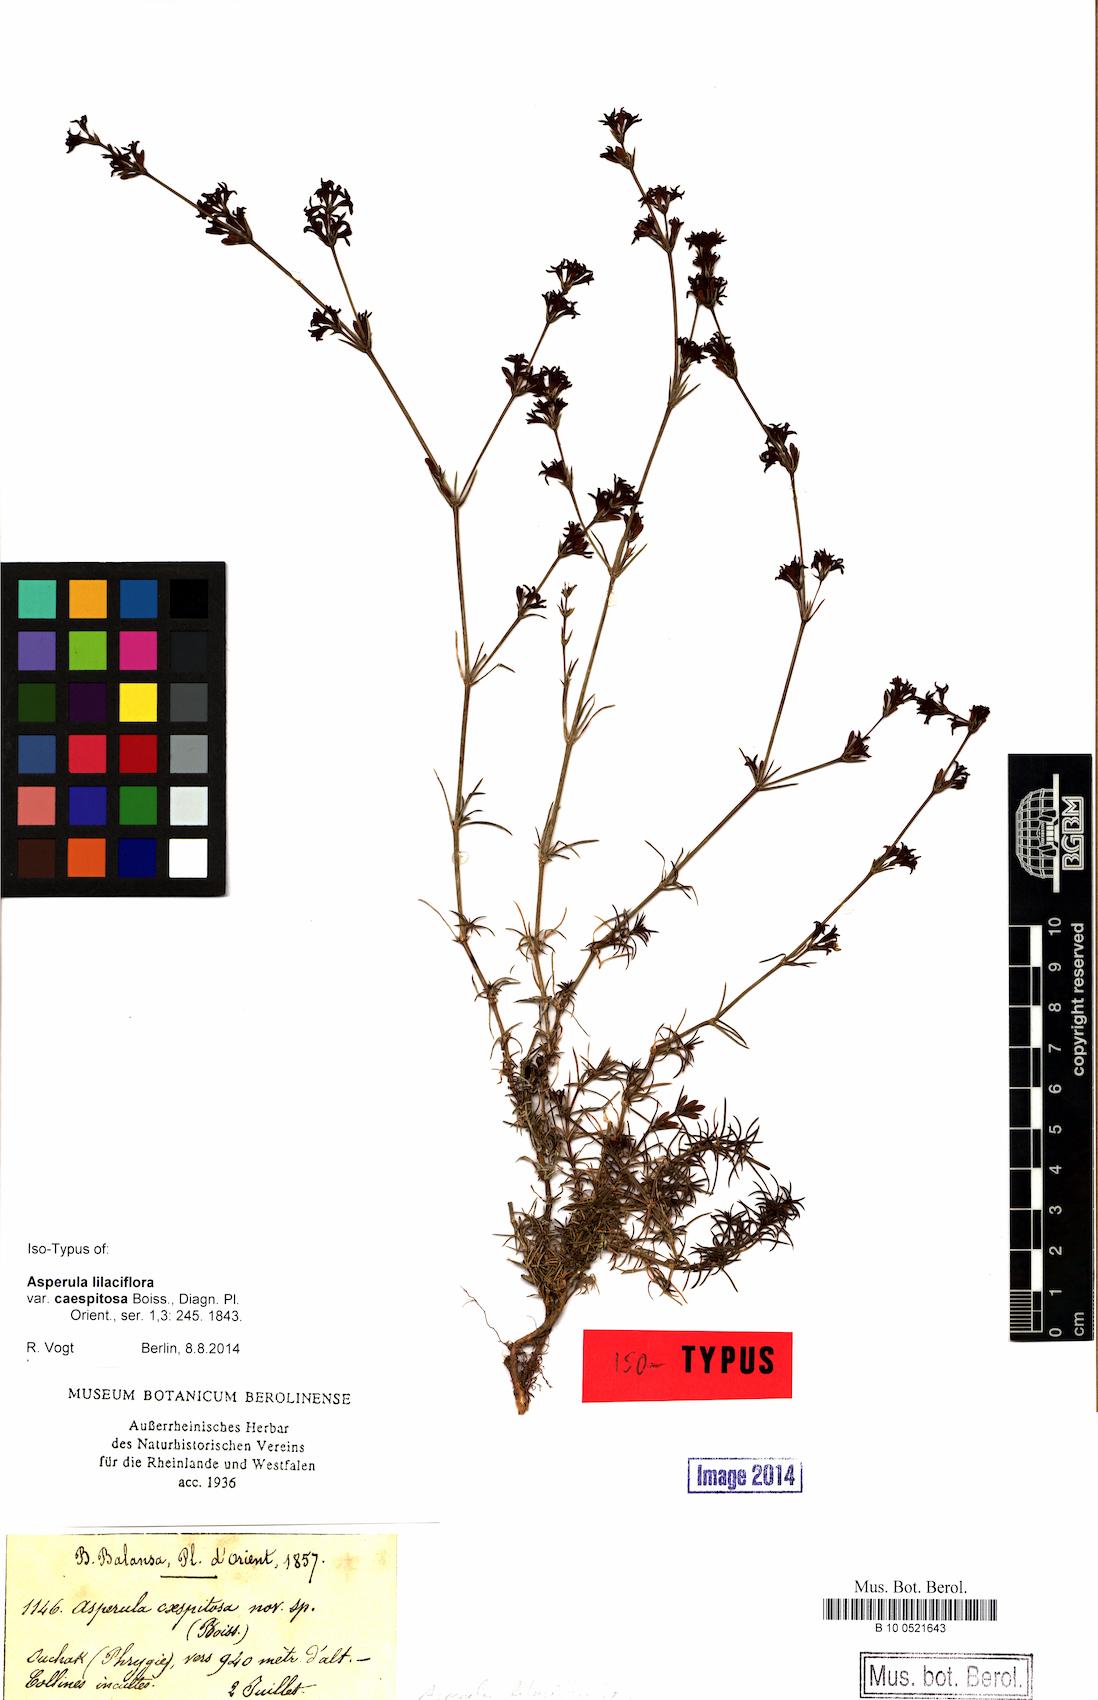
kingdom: Plantae
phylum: Tracheophyta
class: Magnoliopsida
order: Gentianales
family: Rubiaceae
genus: Cynanchica
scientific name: Cynanchica lilaciflora
